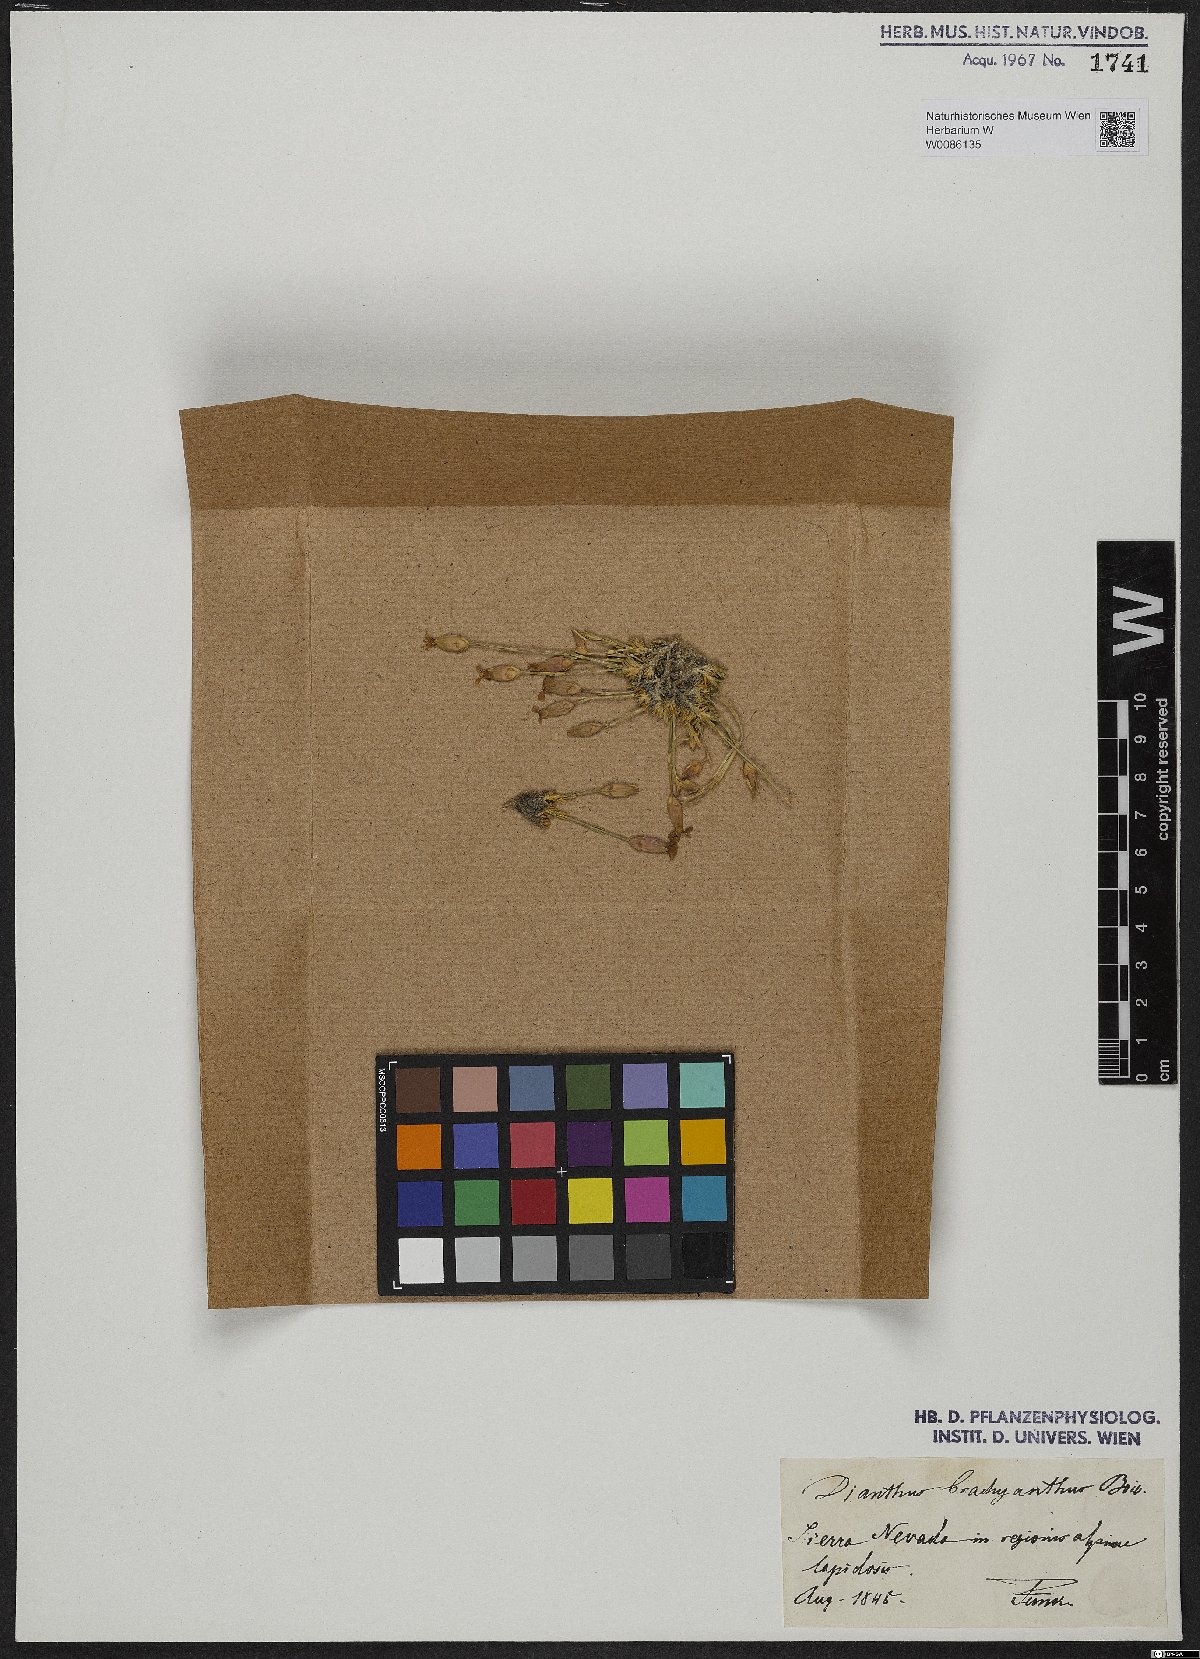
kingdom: Plantae
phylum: Tracheophyta
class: Magnoliopsida
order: Caryophyllales
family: Caryophyllaceae
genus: Dianthus
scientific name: Dianthus pungens
